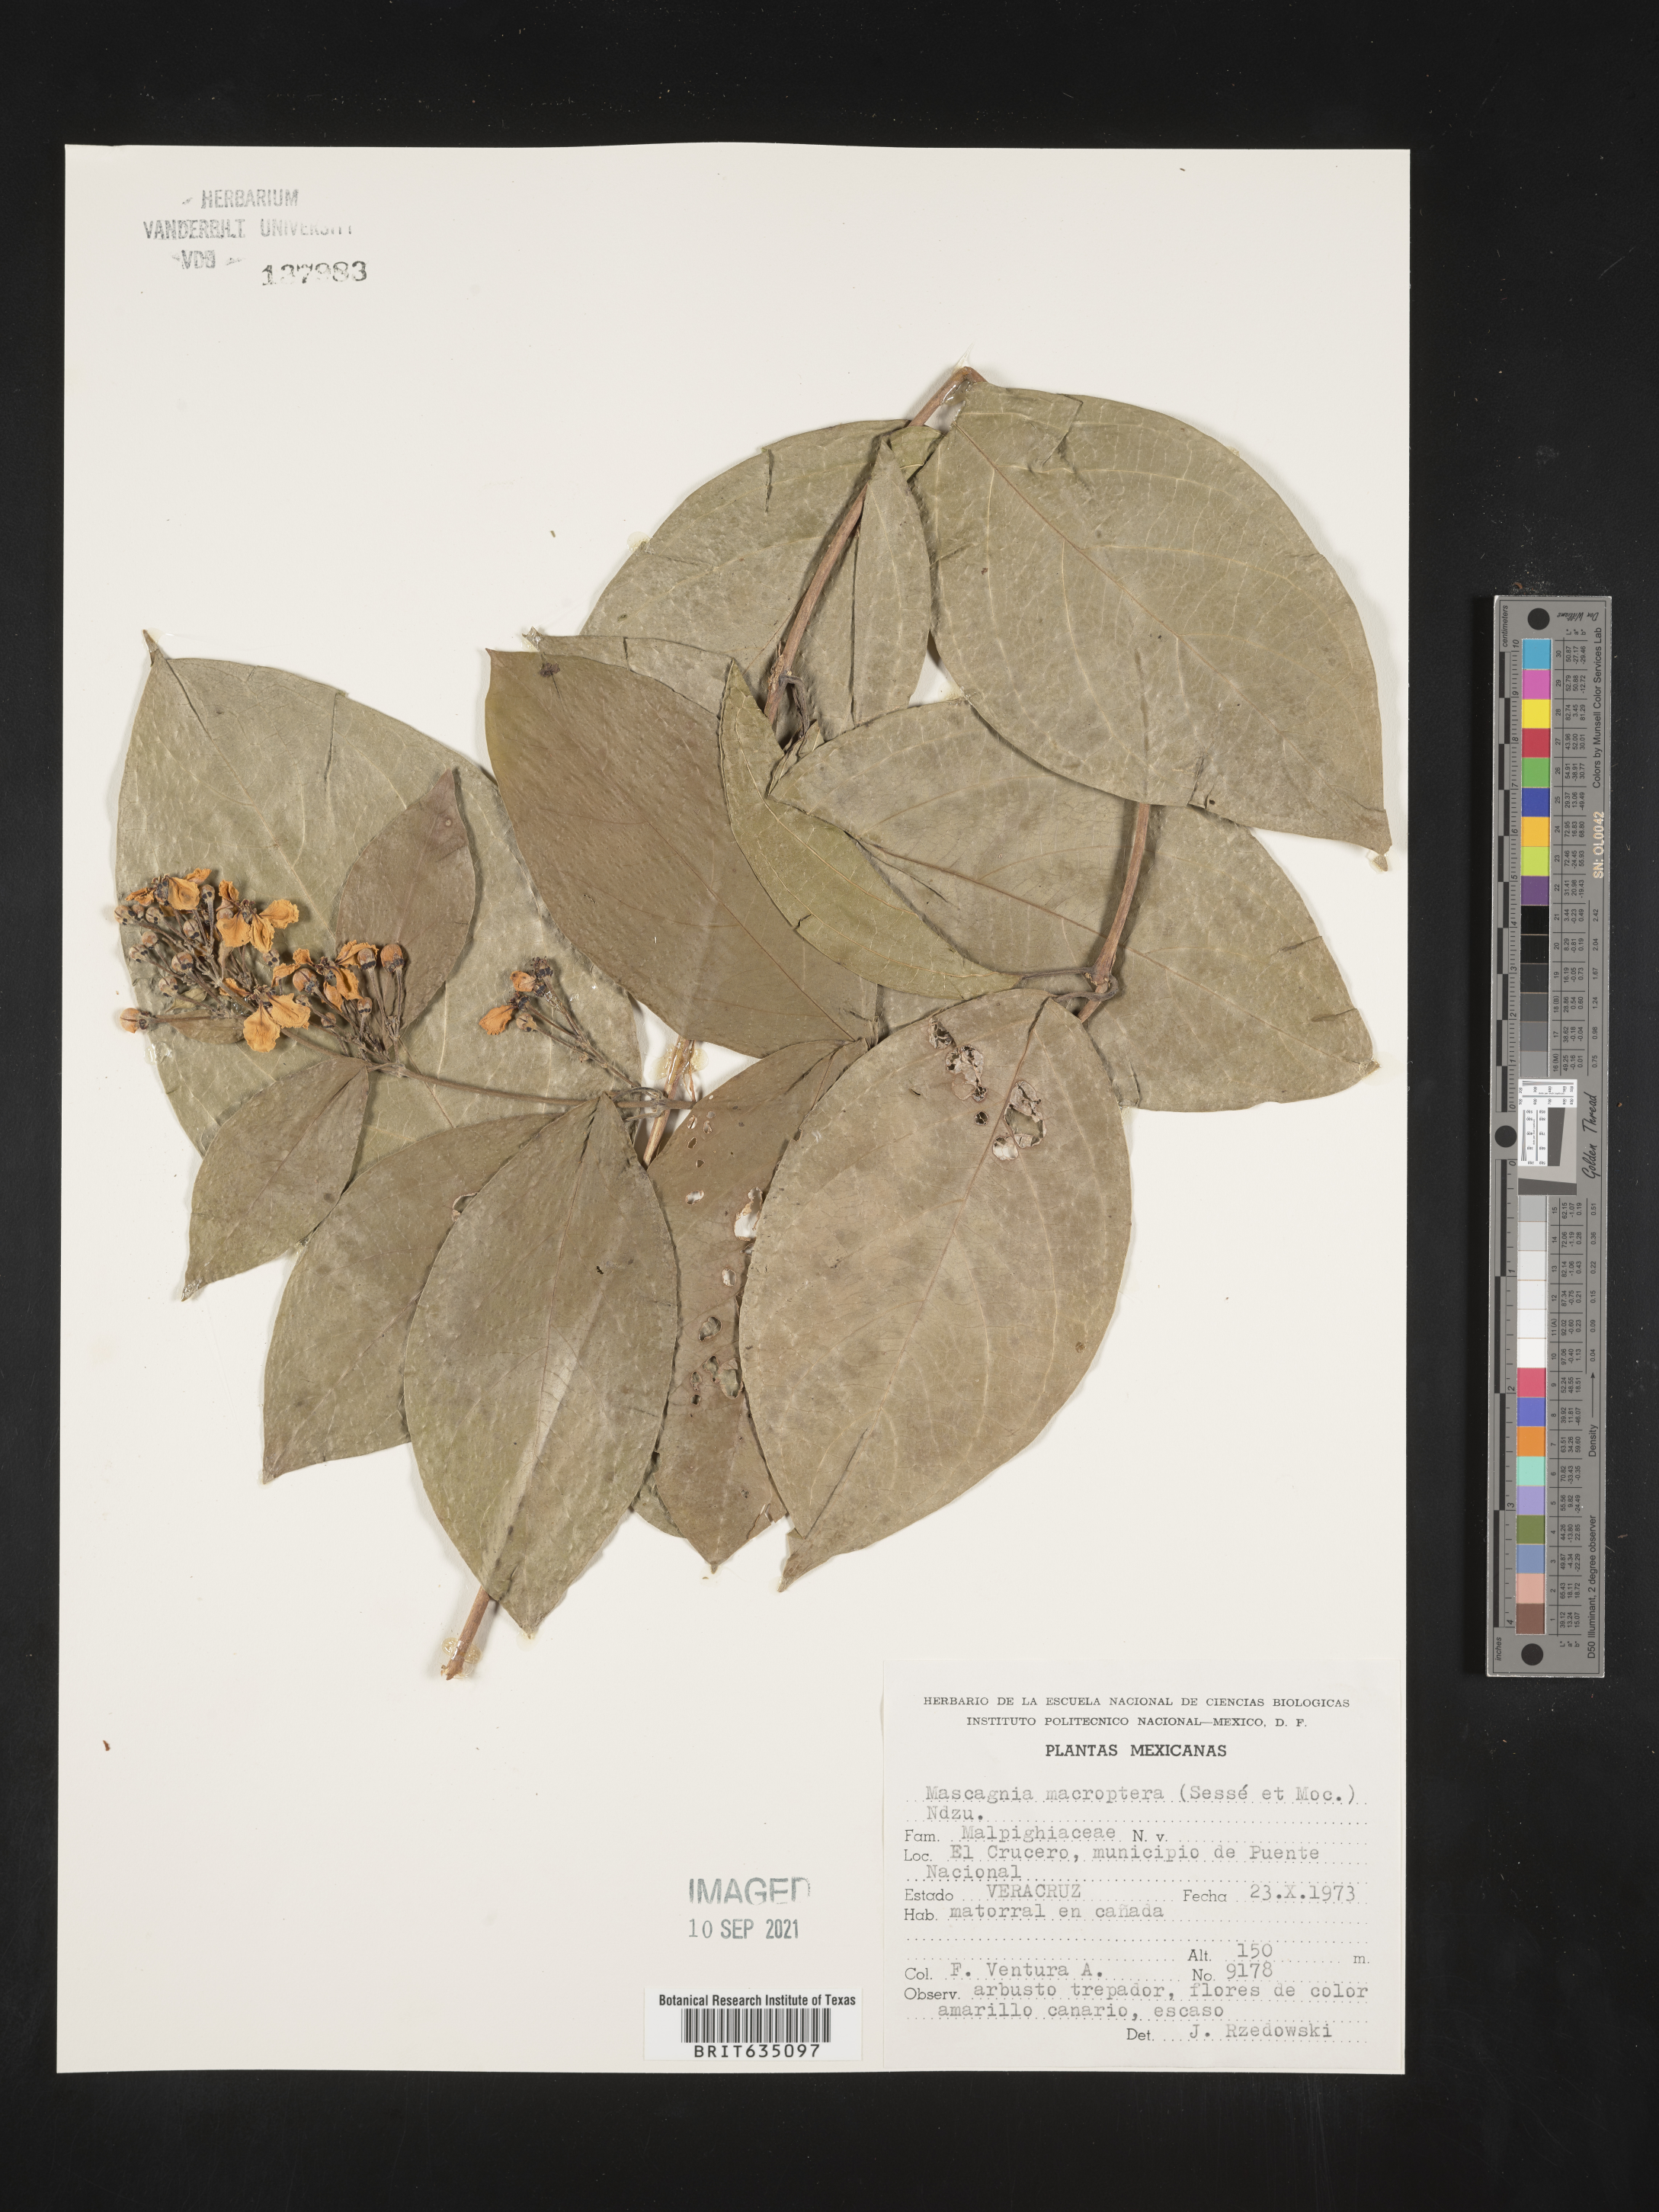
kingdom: Plantae
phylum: Tracheophyta
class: Magnoliopsida
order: Malpighiales
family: Malpighiaceae
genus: Mascagnia
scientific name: Mascagnia
